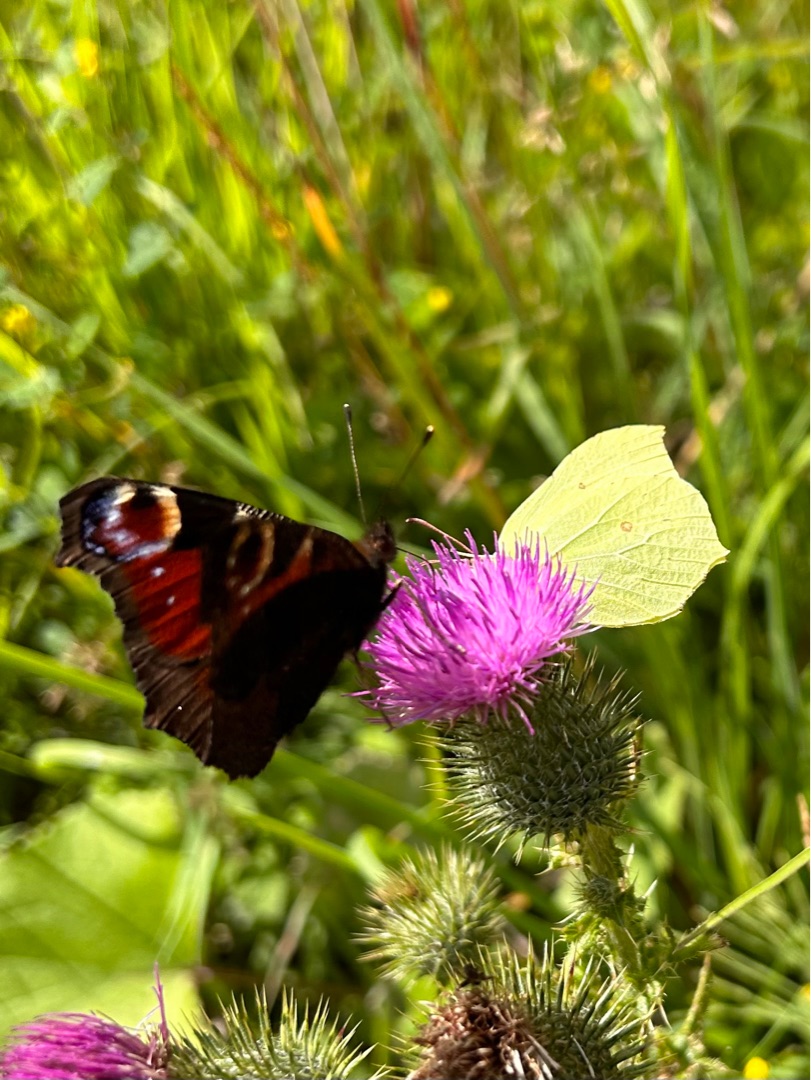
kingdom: Animalia
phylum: Arthropoda
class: Insecta
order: Lepidoptera
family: Pieridae
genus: Gonepteryx
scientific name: Gonepteryx rhamni
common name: Citronsommerfugl
